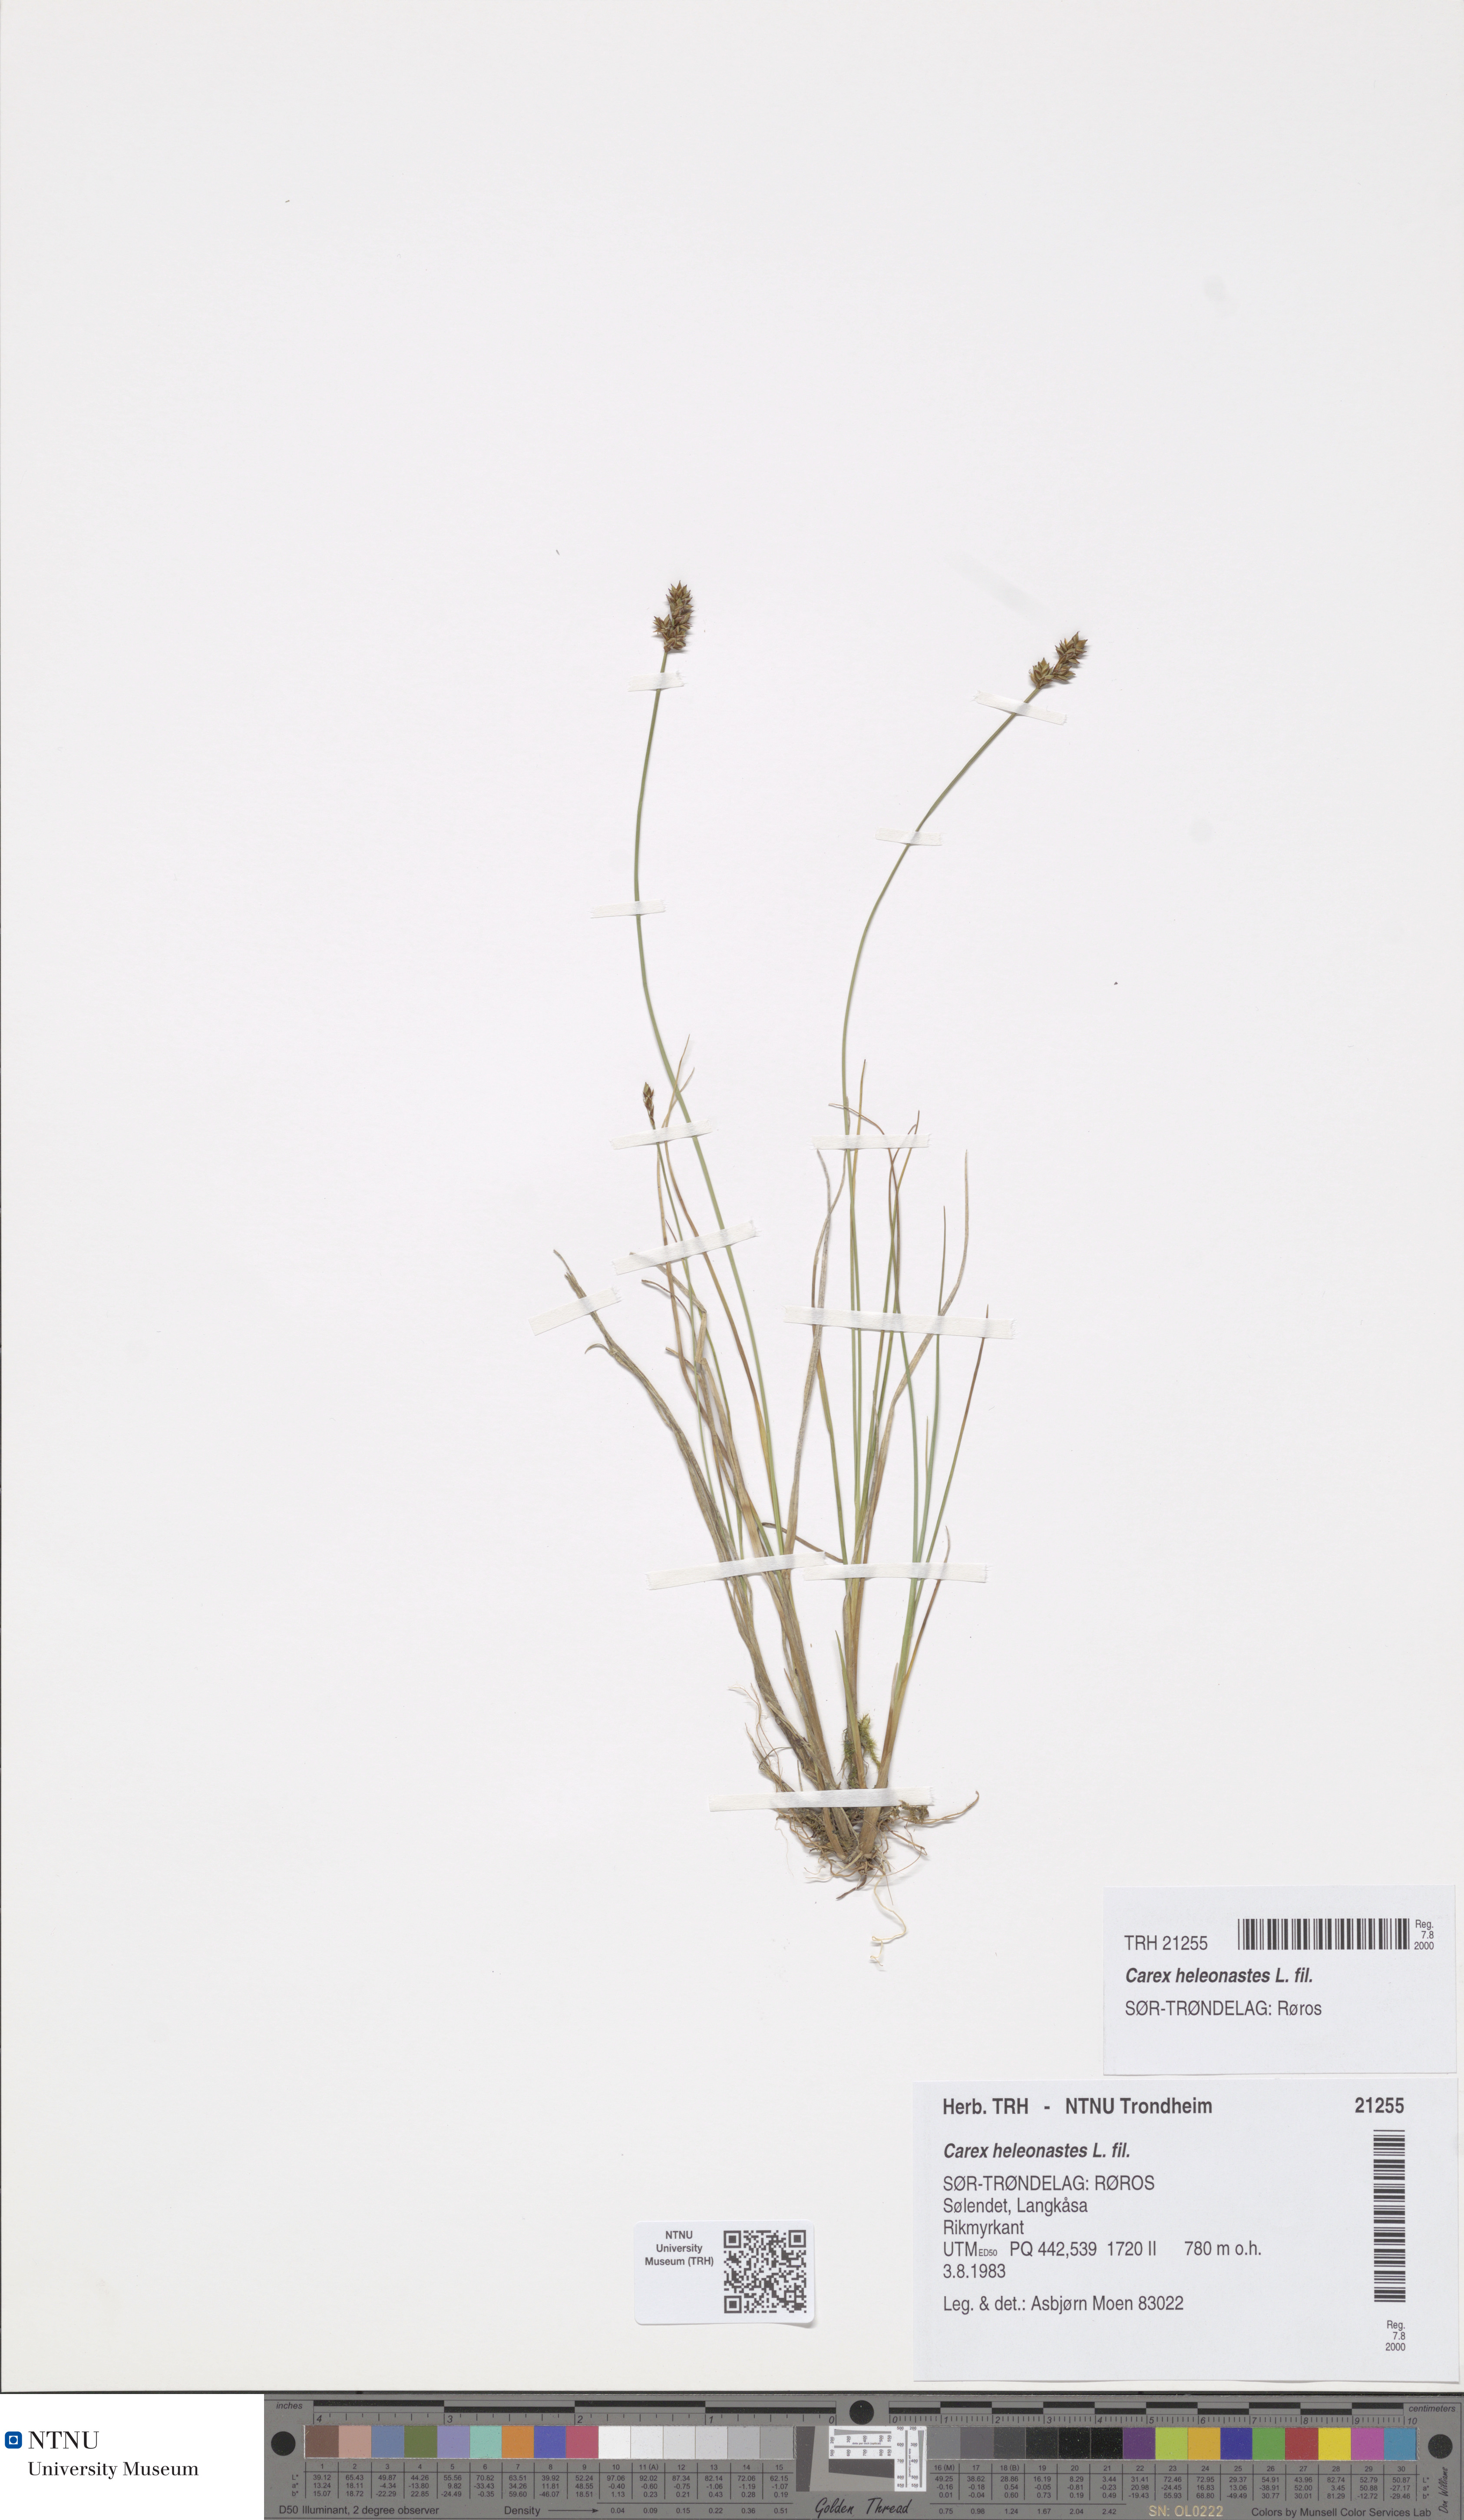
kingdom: Plantae
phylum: Tracheophyta
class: Liliopsida
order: Poales
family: Cyperaceae
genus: Carex
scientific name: Carex heleonastes
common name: Hudson bay sedge
